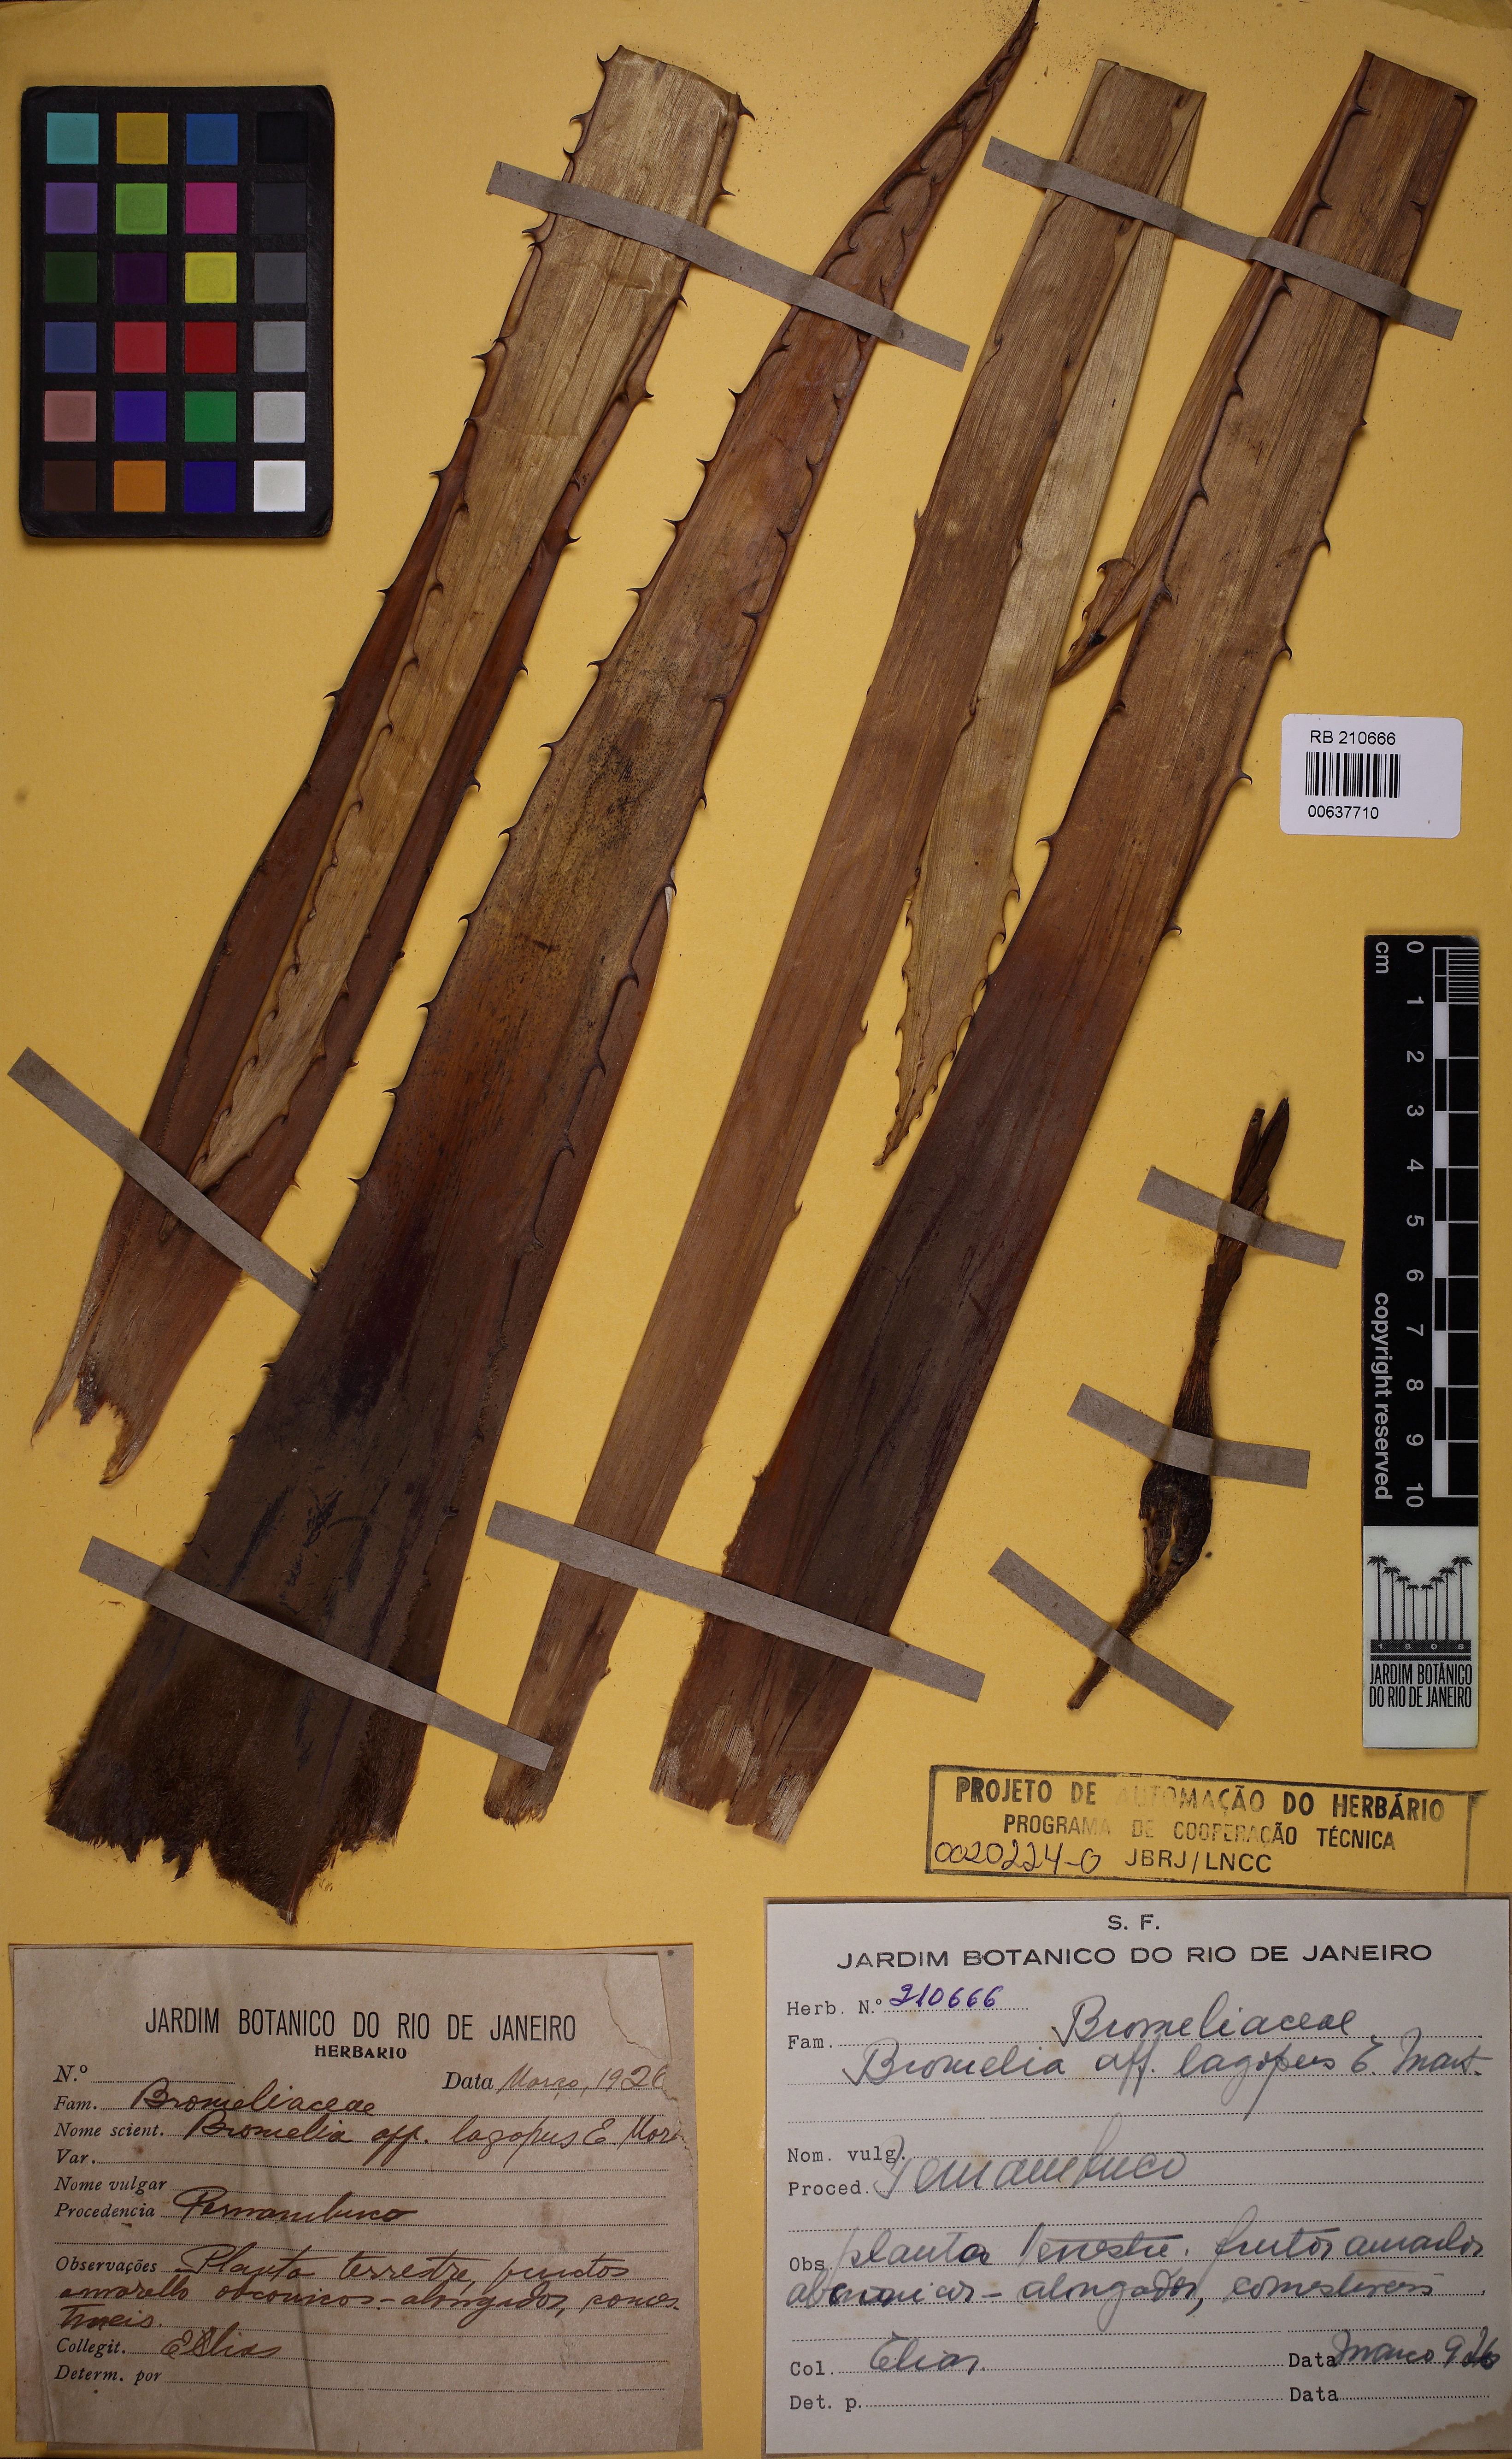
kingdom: Plantae
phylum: Tracheophyta
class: Liliopsida
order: Poales
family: Bromeliaceae
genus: Bromelia
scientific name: Bromelia lagopus
